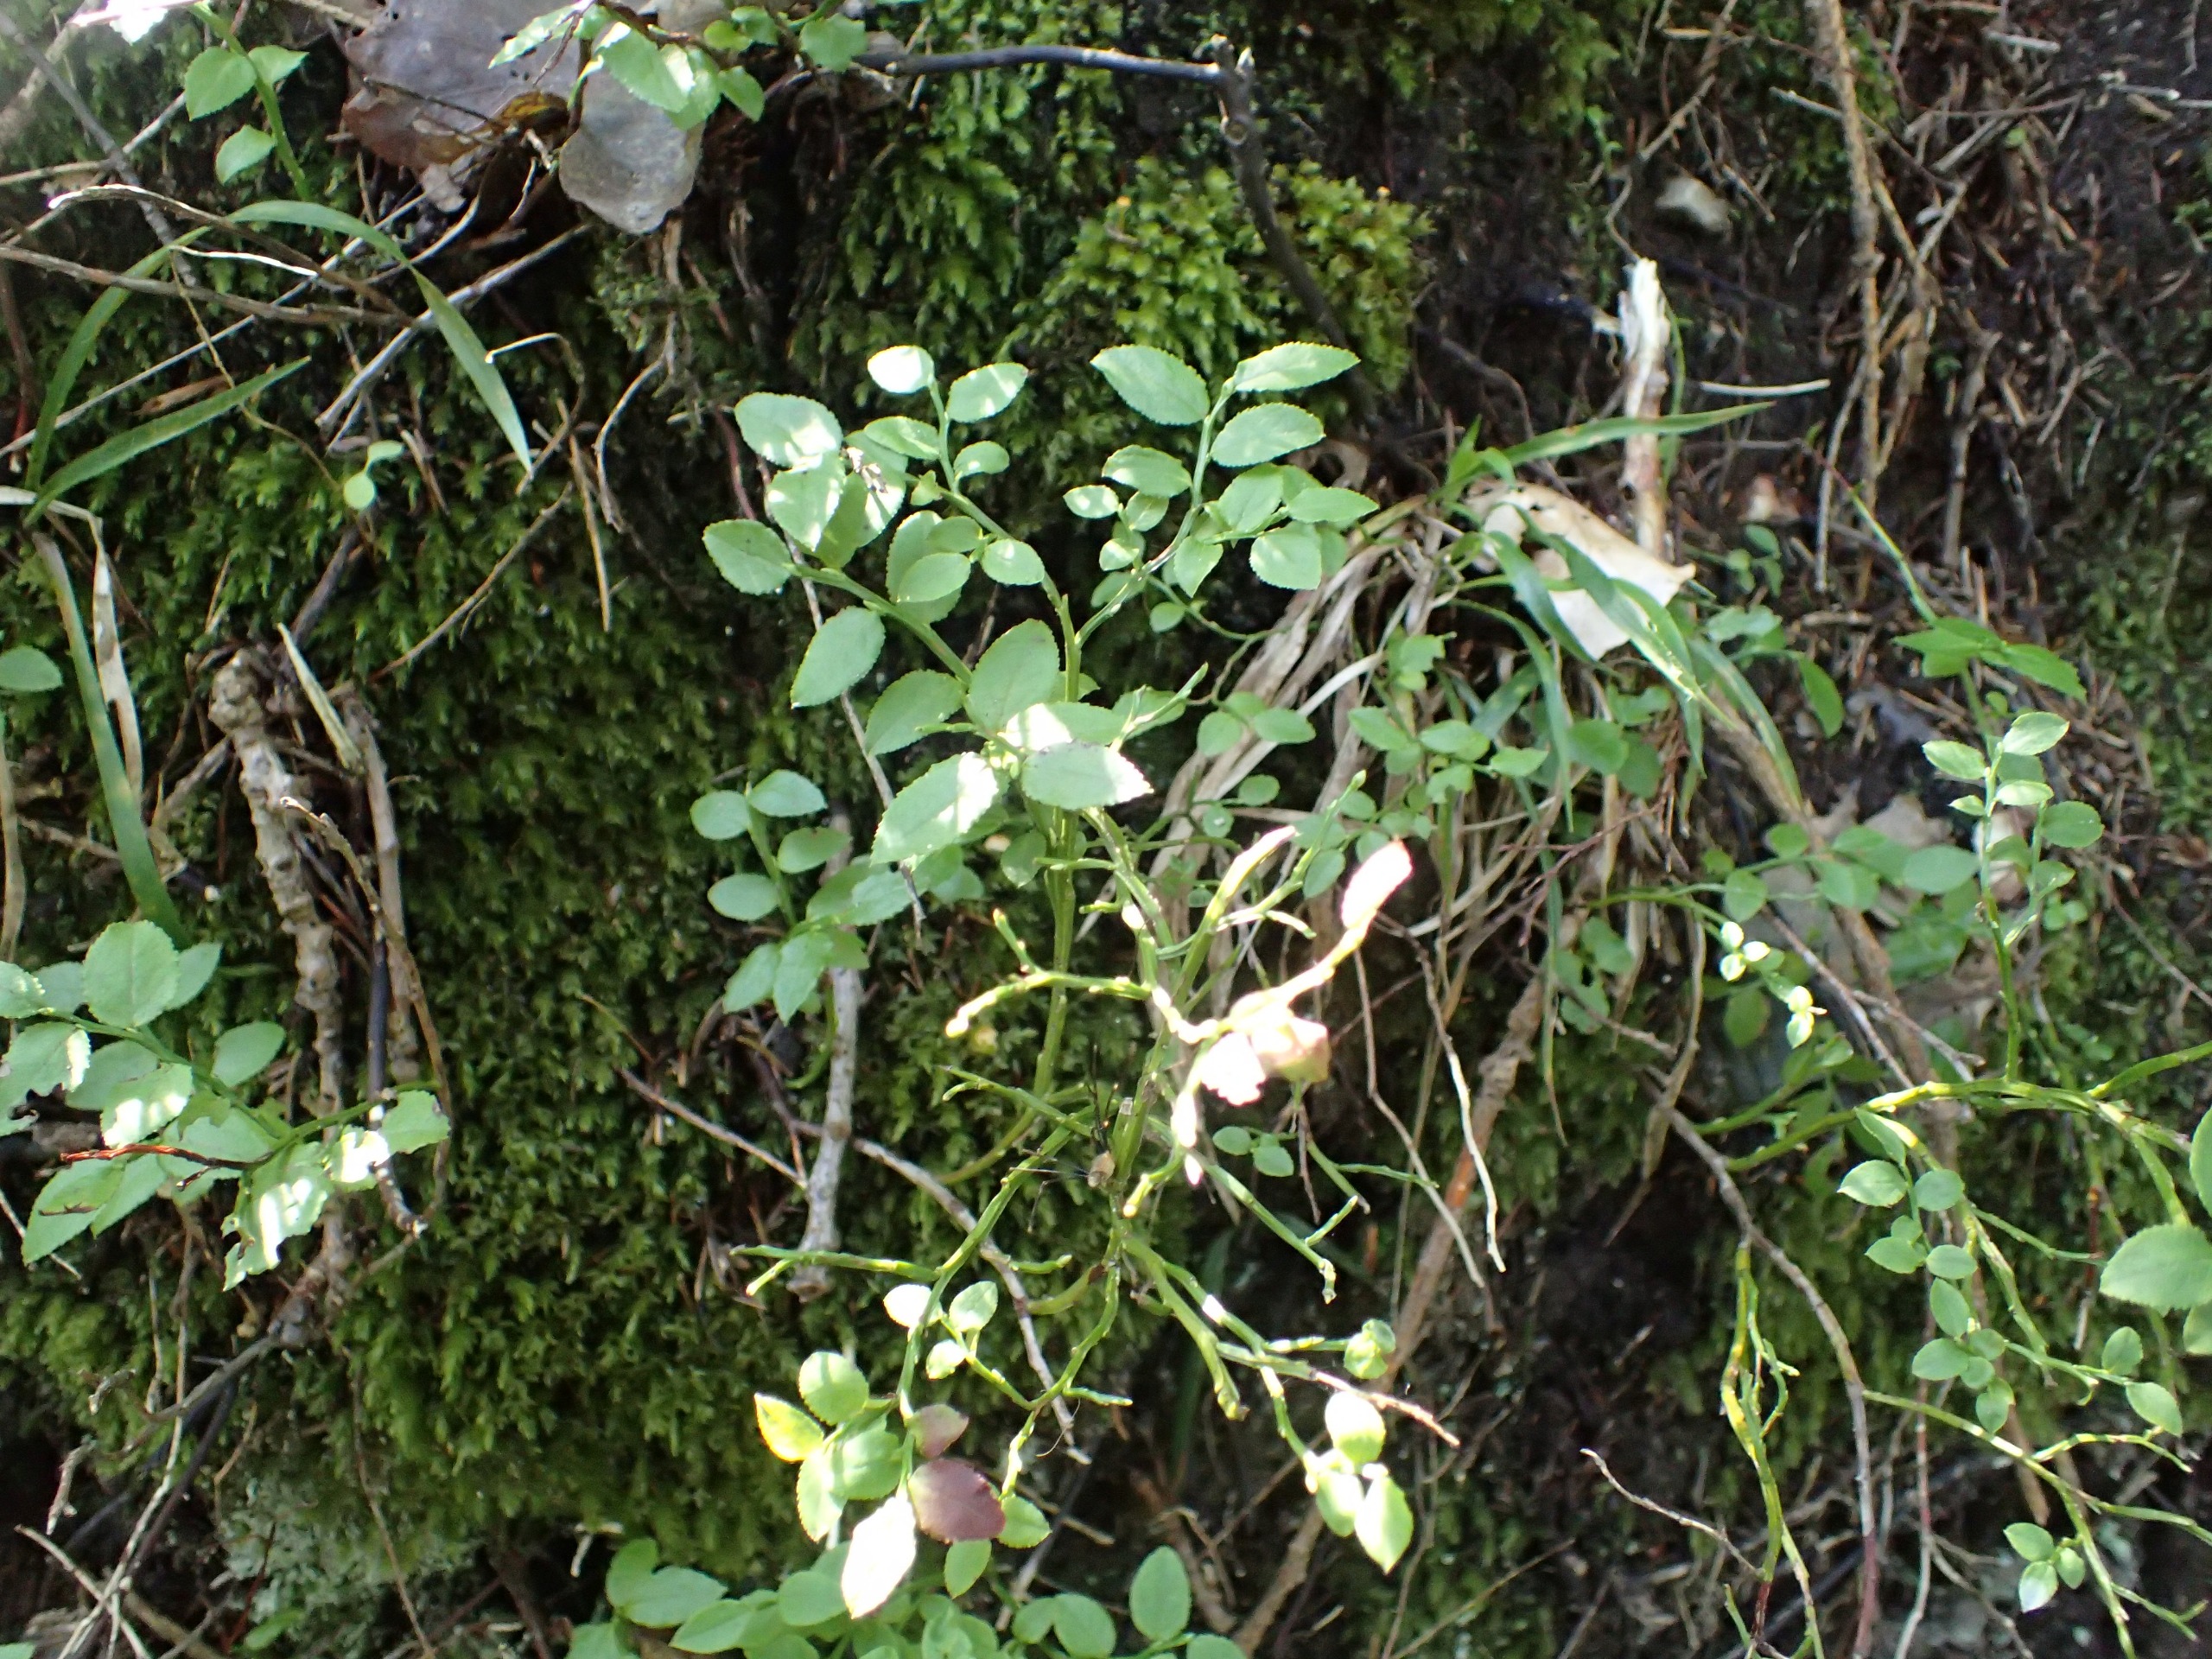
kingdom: Plantae
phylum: Tracheophyta
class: Magnoliopsida
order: Ericales
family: Ericaceae
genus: Vaccinium
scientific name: Vaccinium myrtillus
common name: Blåbær
